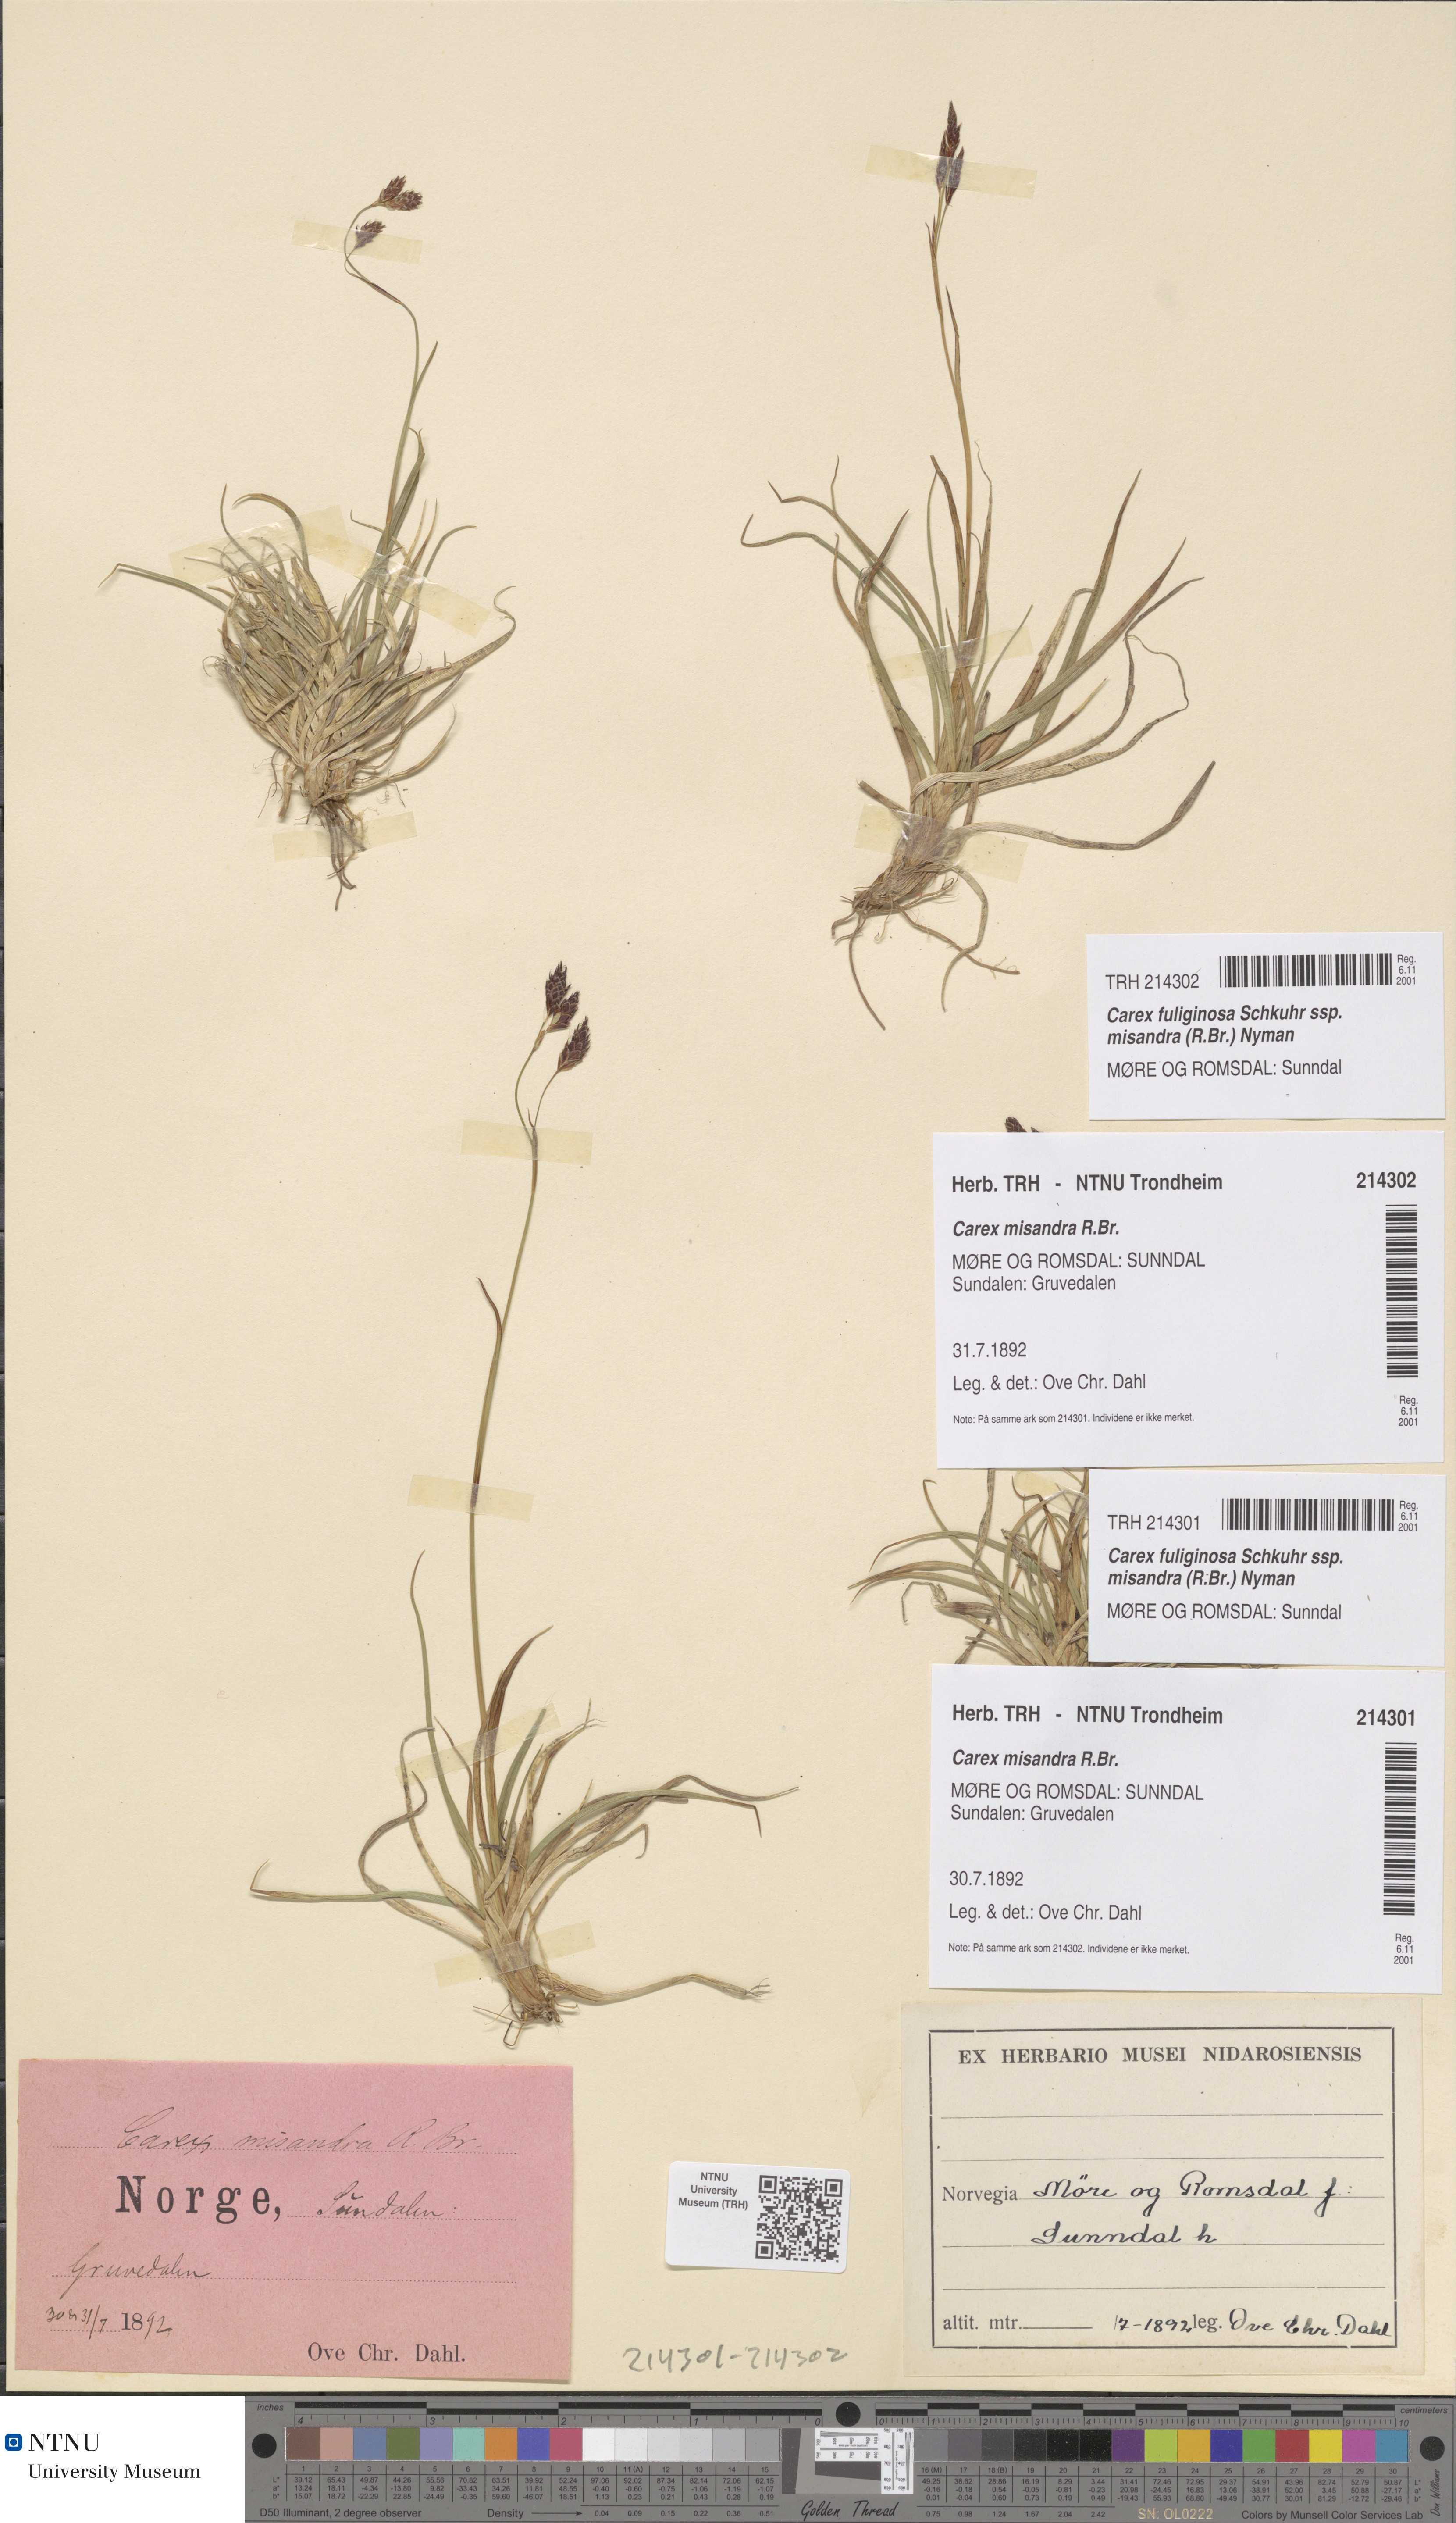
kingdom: Plantae
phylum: Tracheophyta
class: Liliopsida
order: Poales
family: Cyperaceae
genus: Carex
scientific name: Carex fuliginosa
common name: Few-flowered sedge
